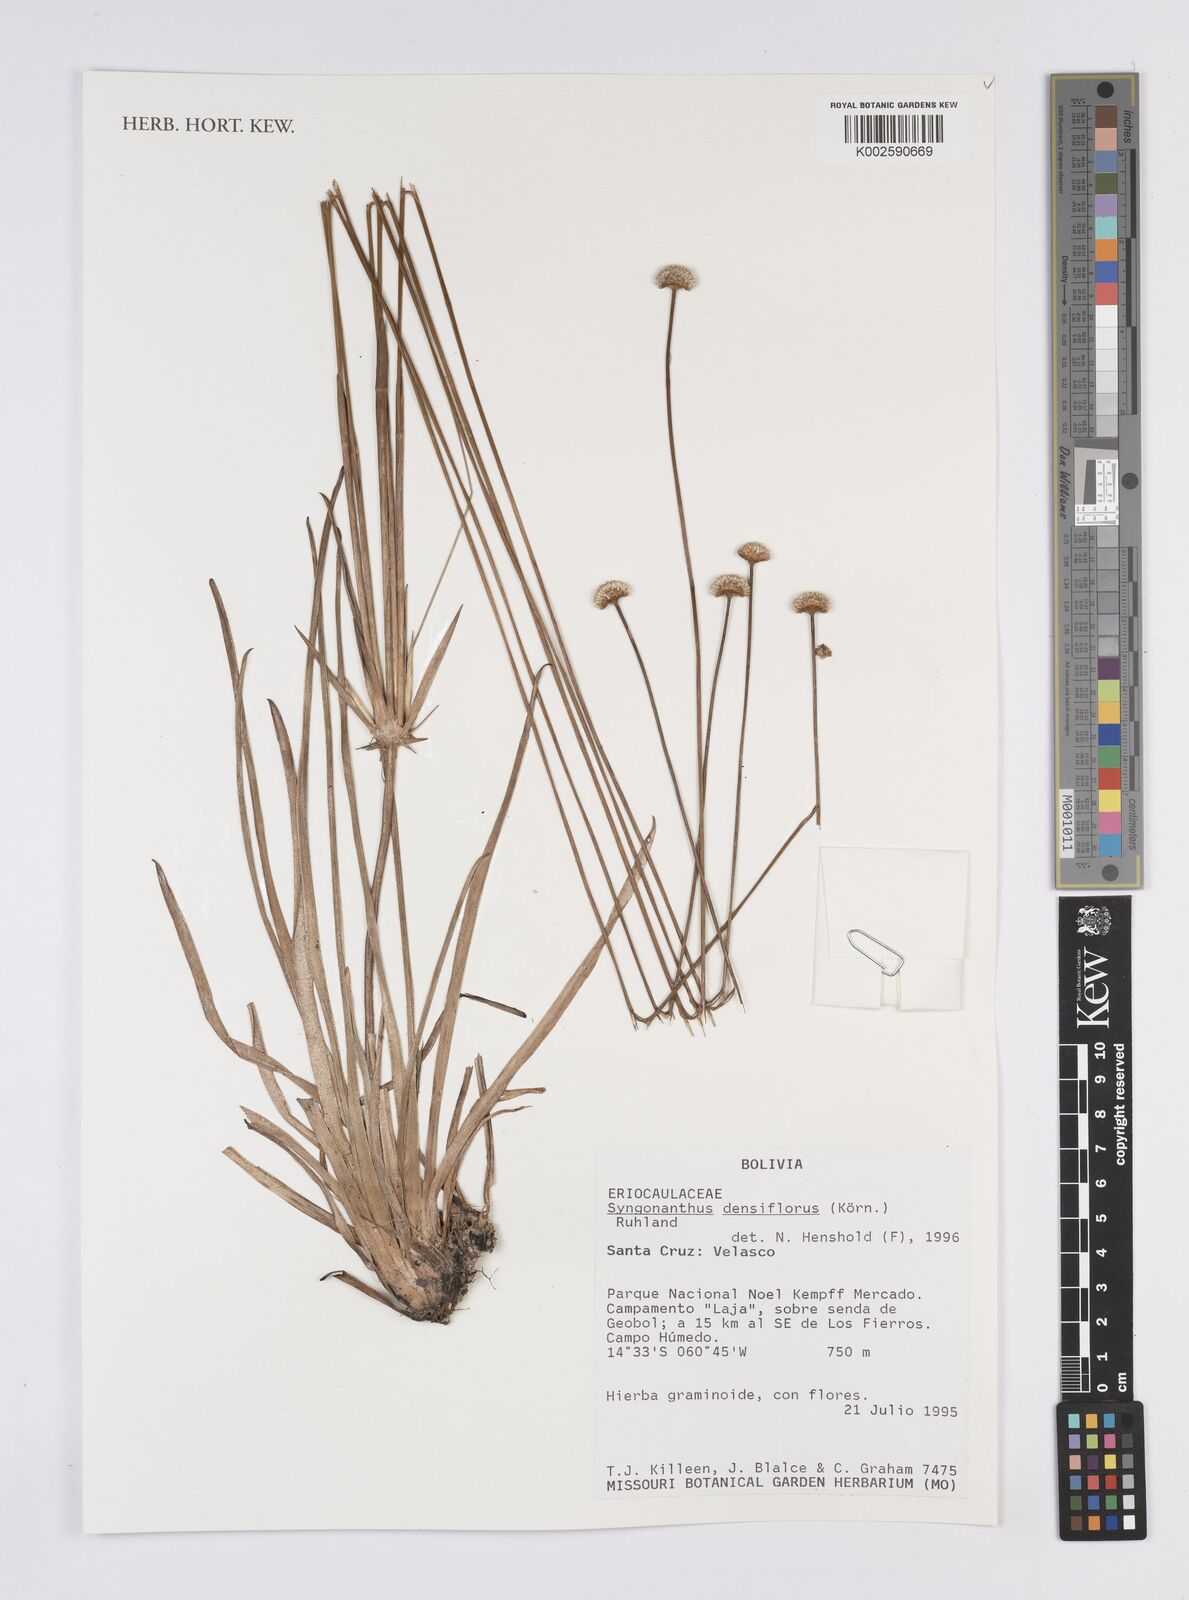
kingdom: Plantae
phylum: Tracheophyta
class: Liliopsida
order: Poales
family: Eriocaulaceae
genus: Syngonanthus
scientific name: Syngonanthus densiflorus
